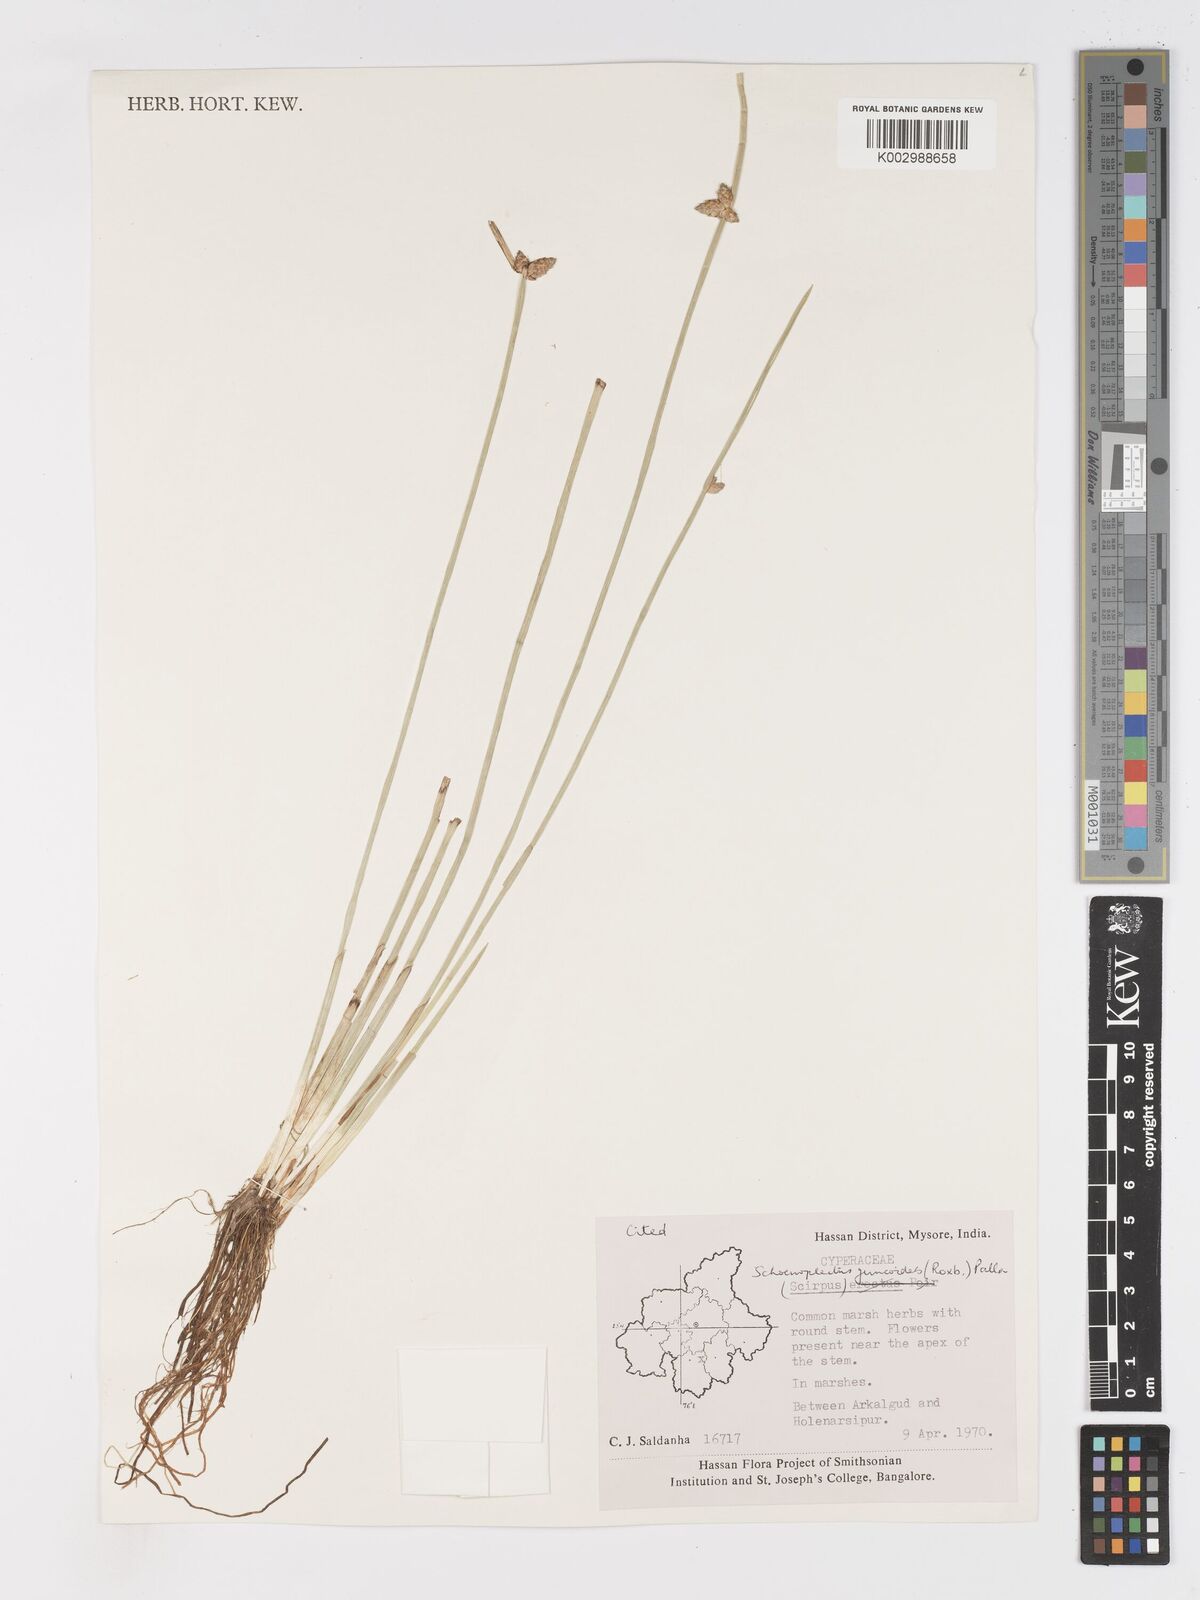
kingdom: Plantae
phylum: Tracheophyta
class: Liliopsida
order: Poales
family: Cyperaceae
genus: Schoenoplectiella
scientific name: Schoenoplectiella juncoides
